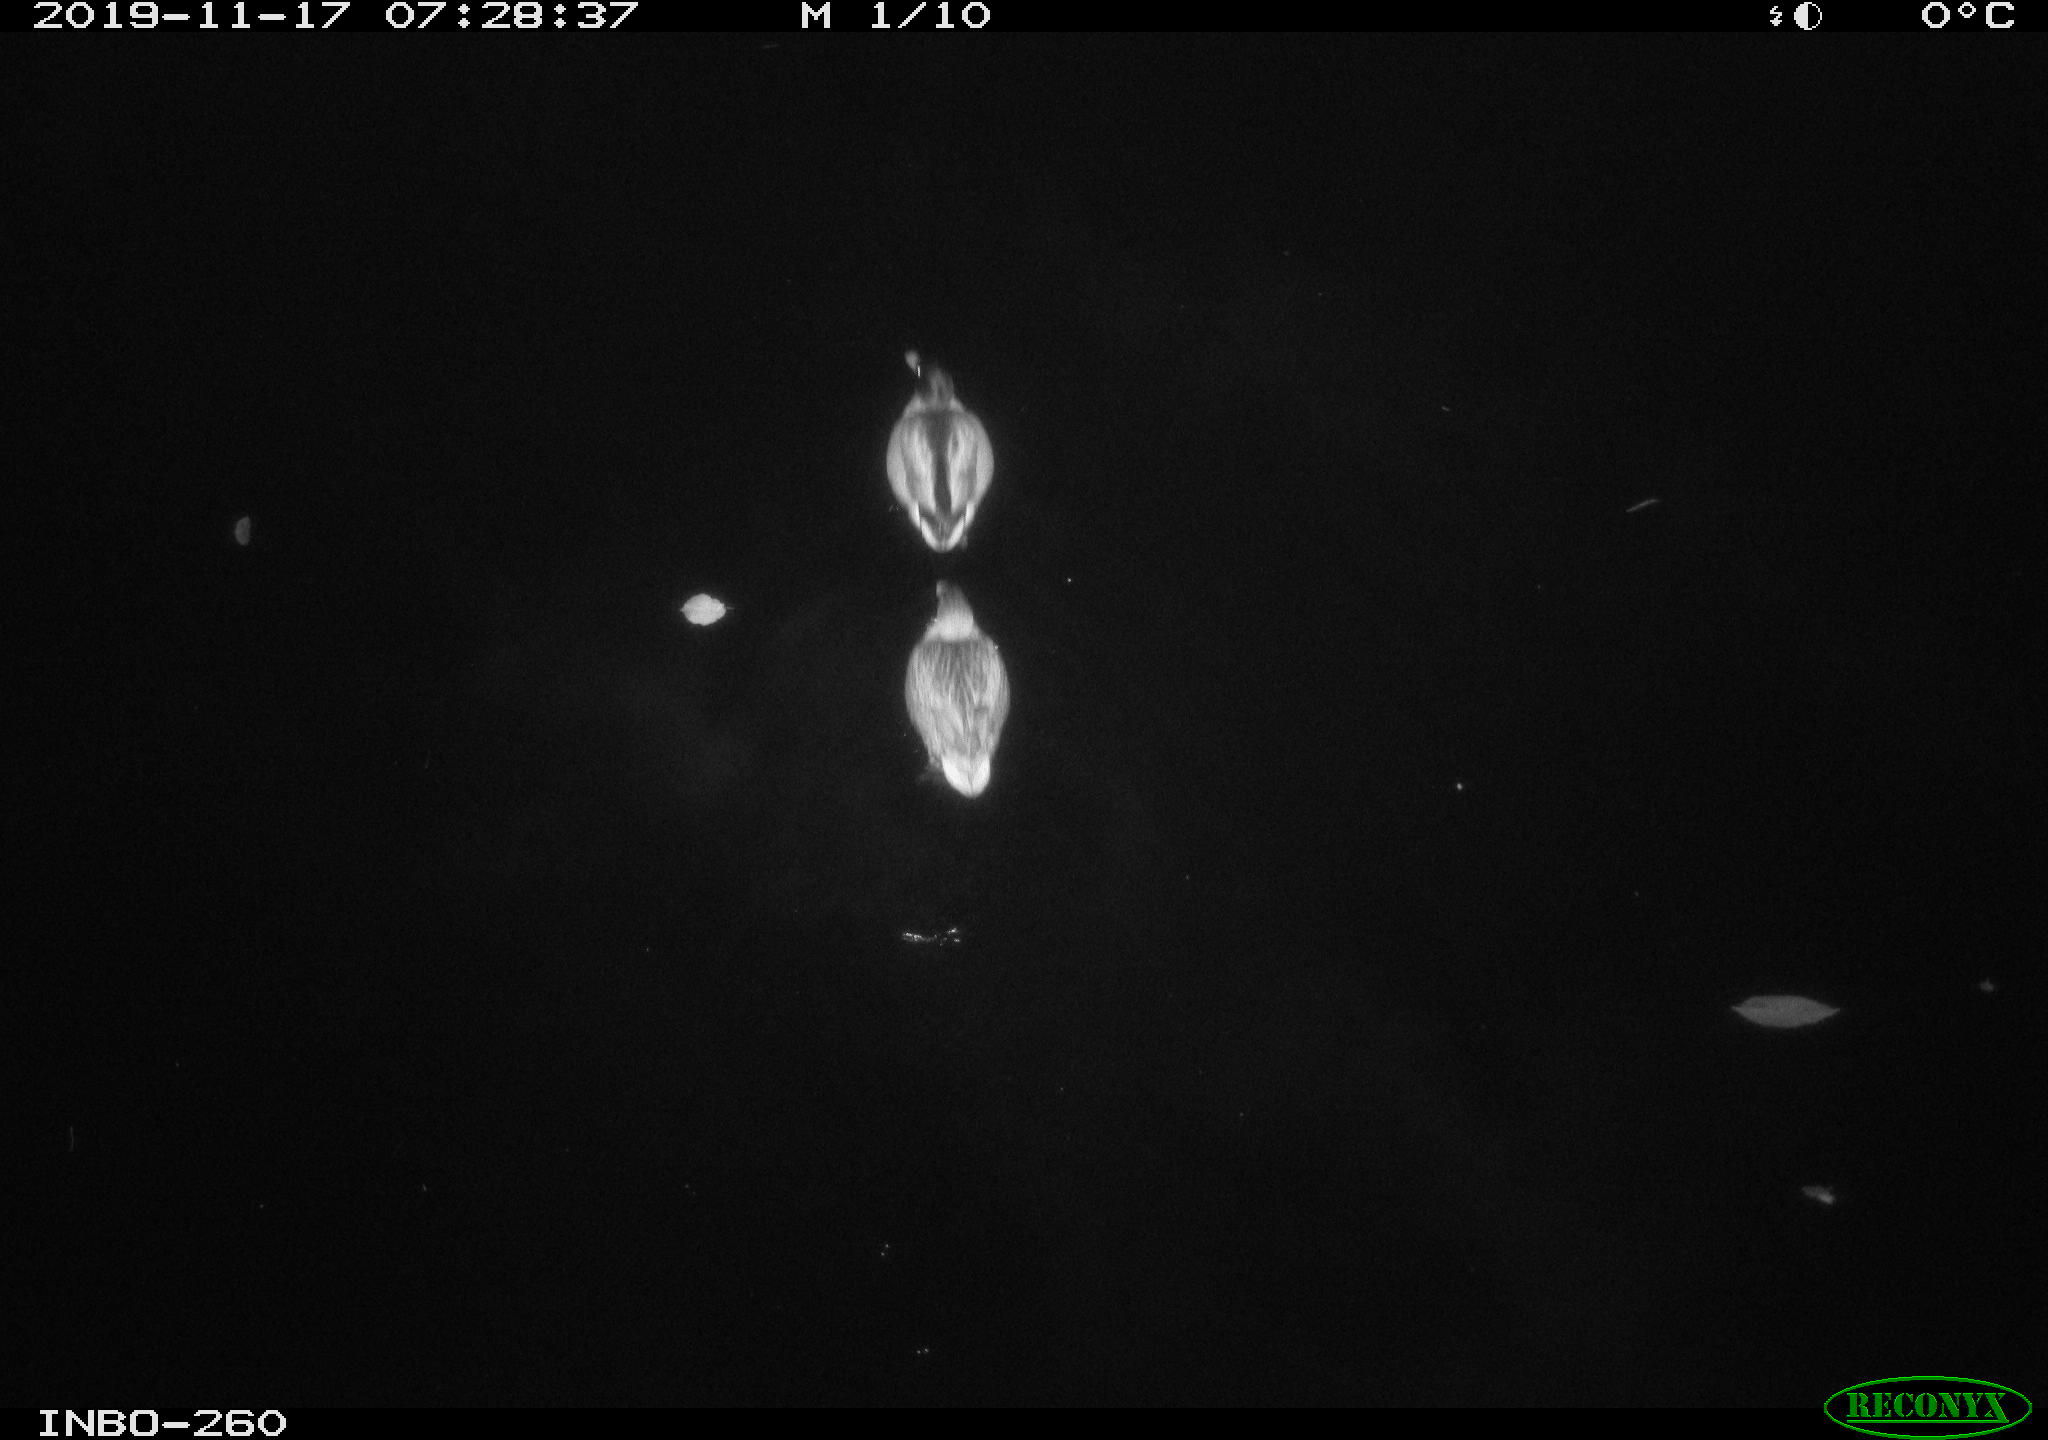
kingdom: Animalia
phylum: Chordata
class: Aves
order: Anseriformes
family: Anatidae
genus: Anas
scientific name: Anas platyrhynchos
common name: Mallard
